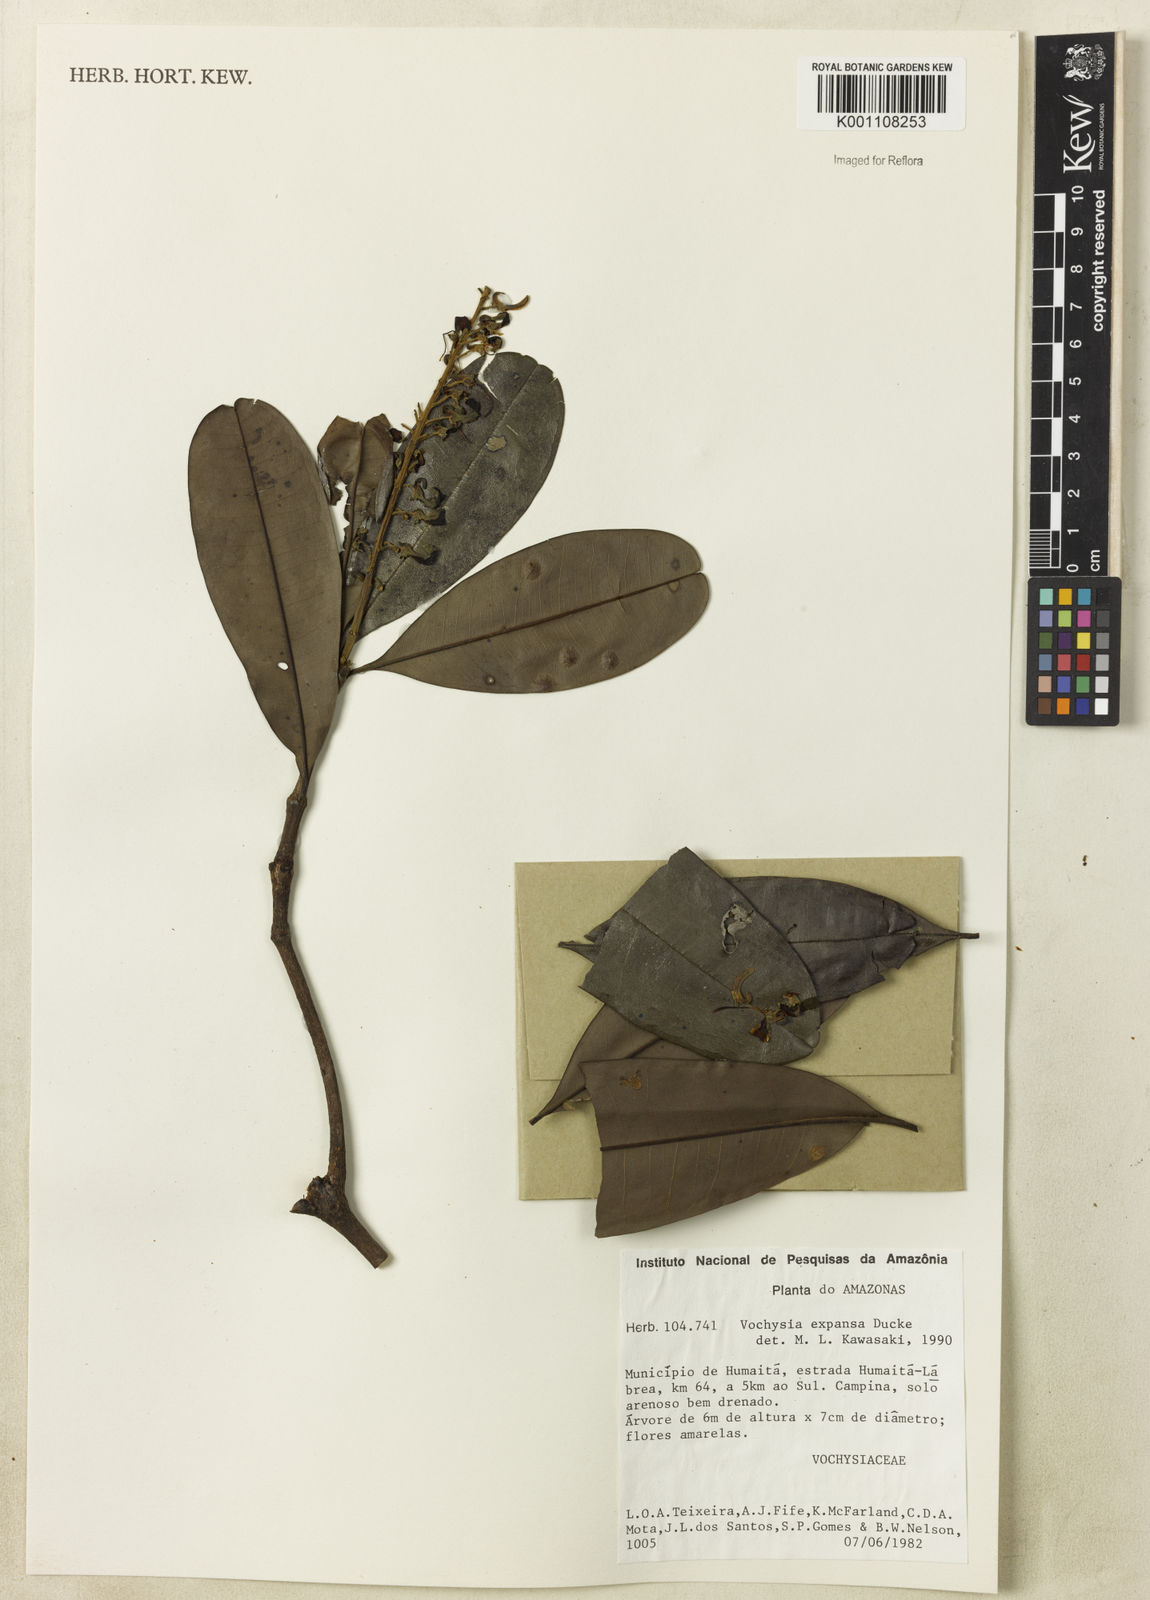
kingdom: Plantae
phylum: Tracheophyta
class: Magnoliopsida
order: Myrtales
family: Vochysiaceae
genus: Vochysia
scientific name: Vochysia expansa
